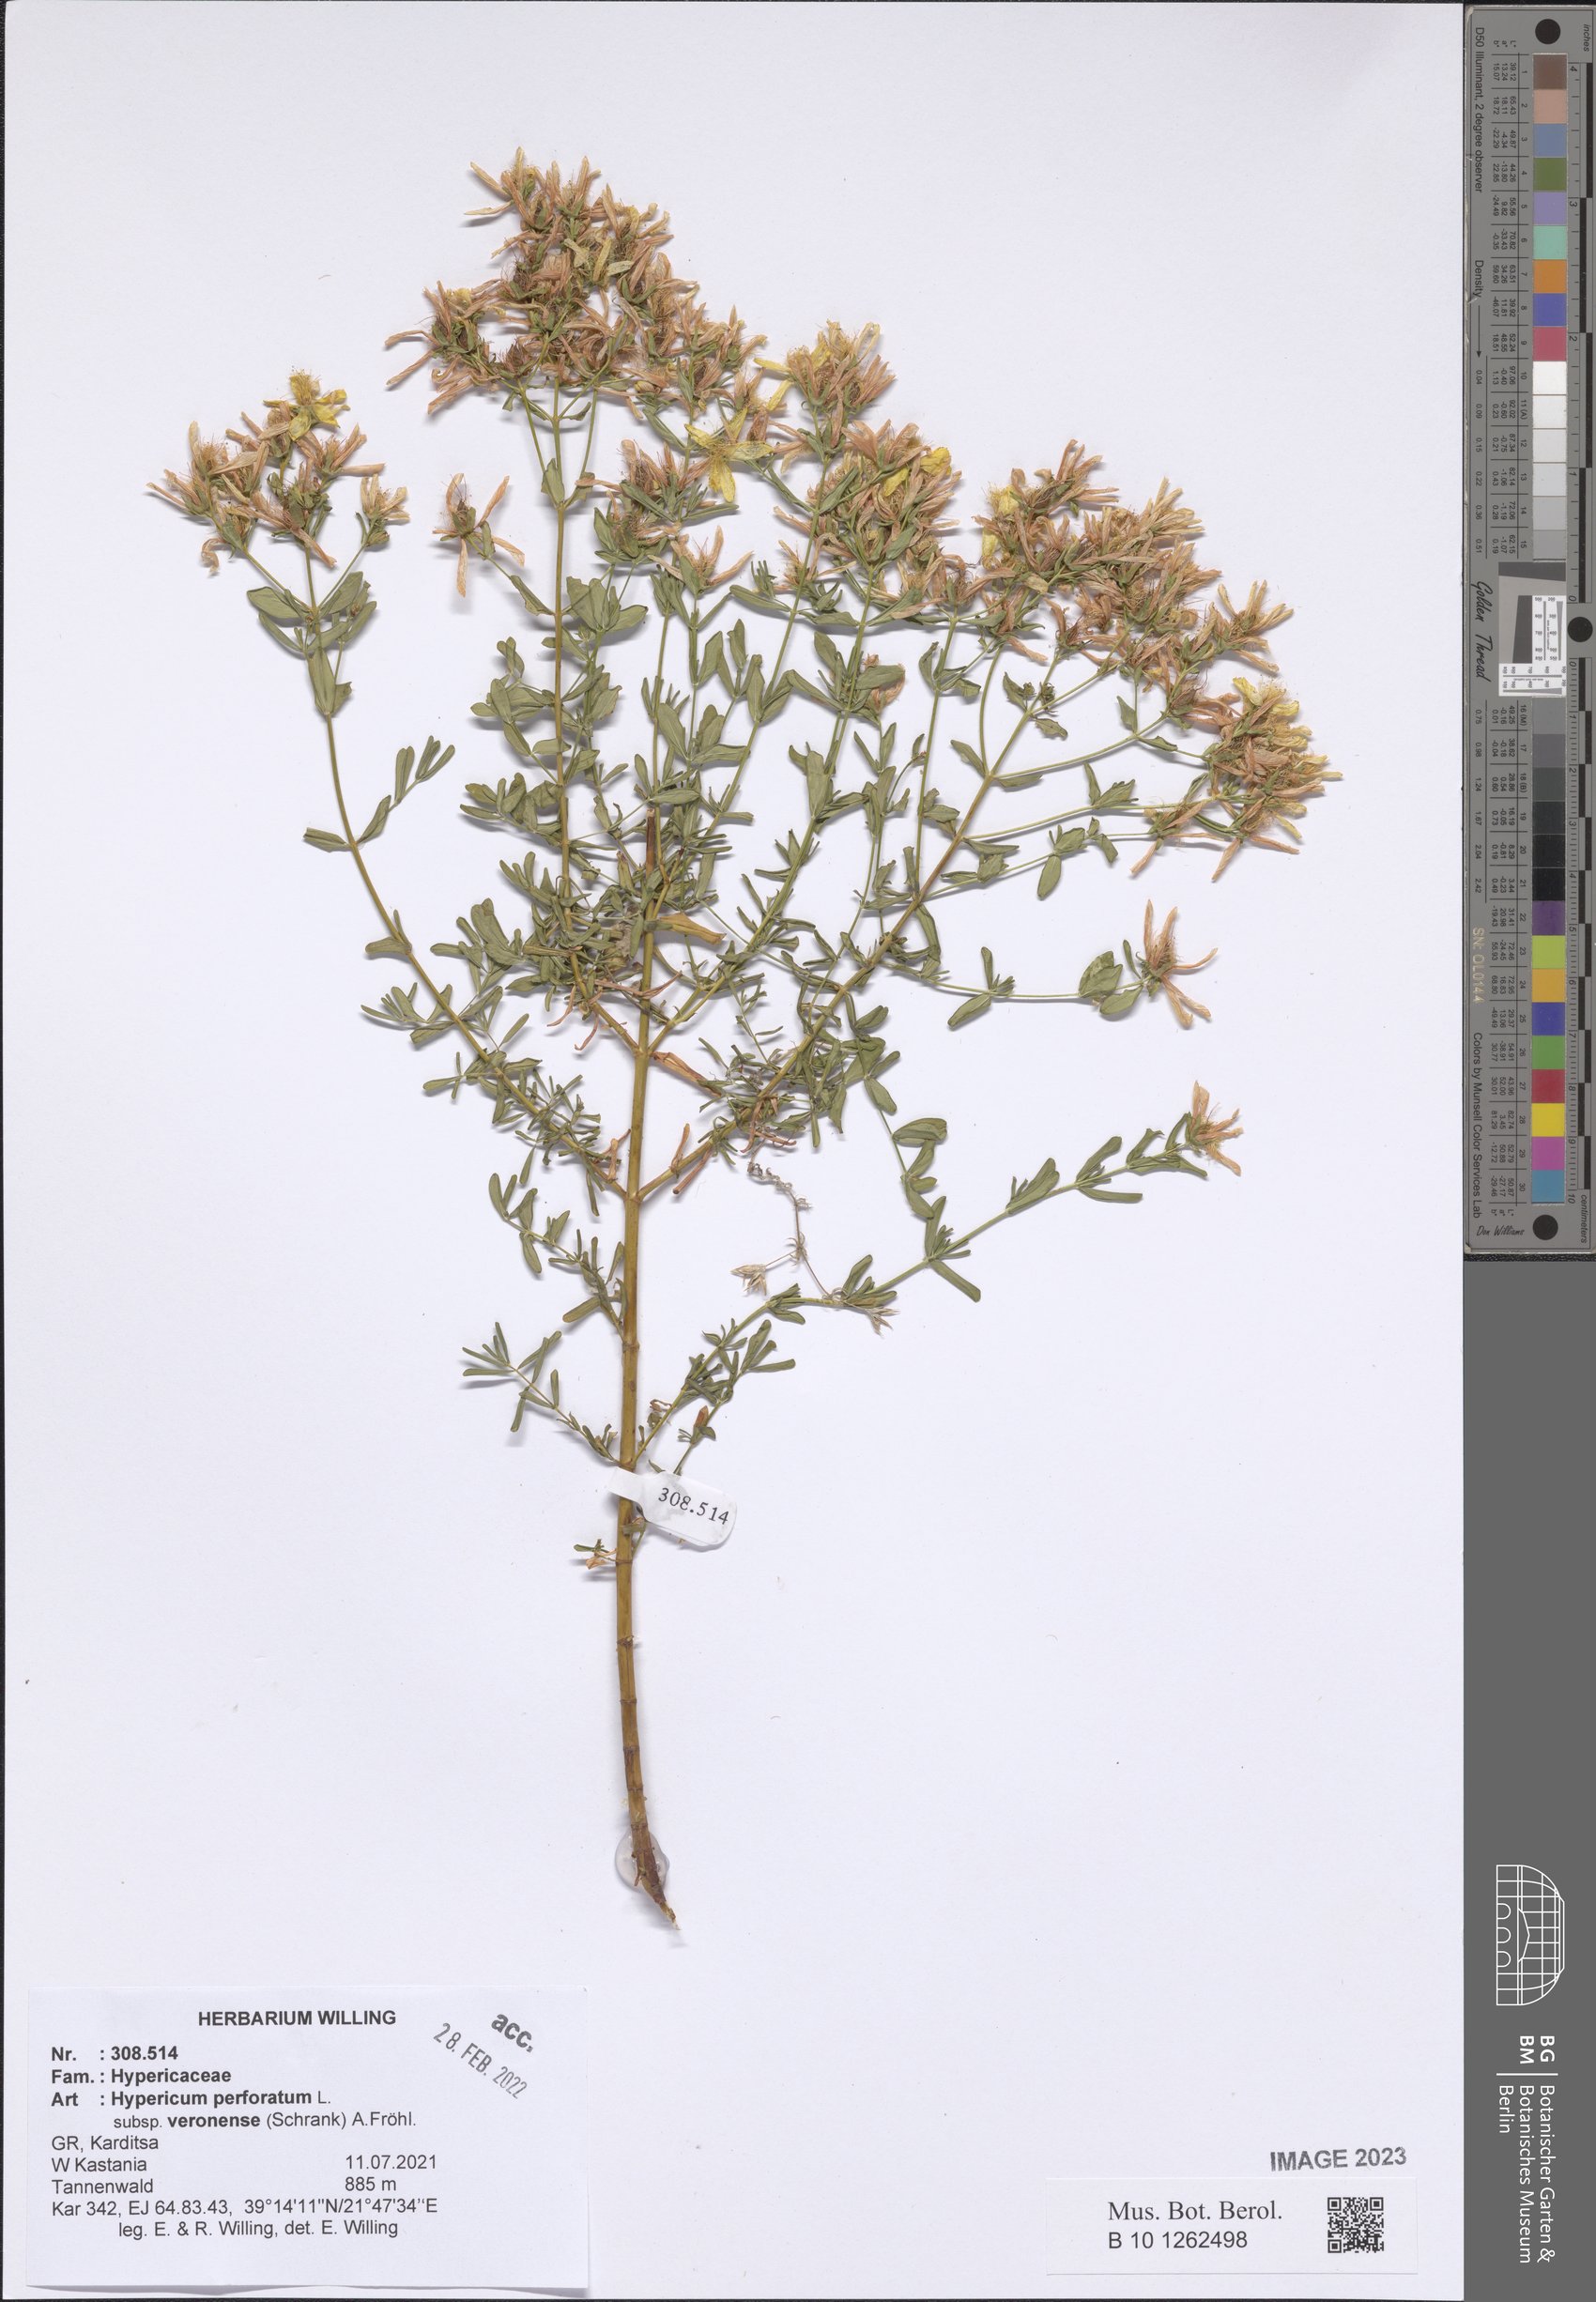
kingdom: Plantae
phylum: Tracheophyta
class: Magnoliopsida
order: Malpighiales
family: Hypericaceae
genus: Hypericum
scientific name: Hypericum veronense
